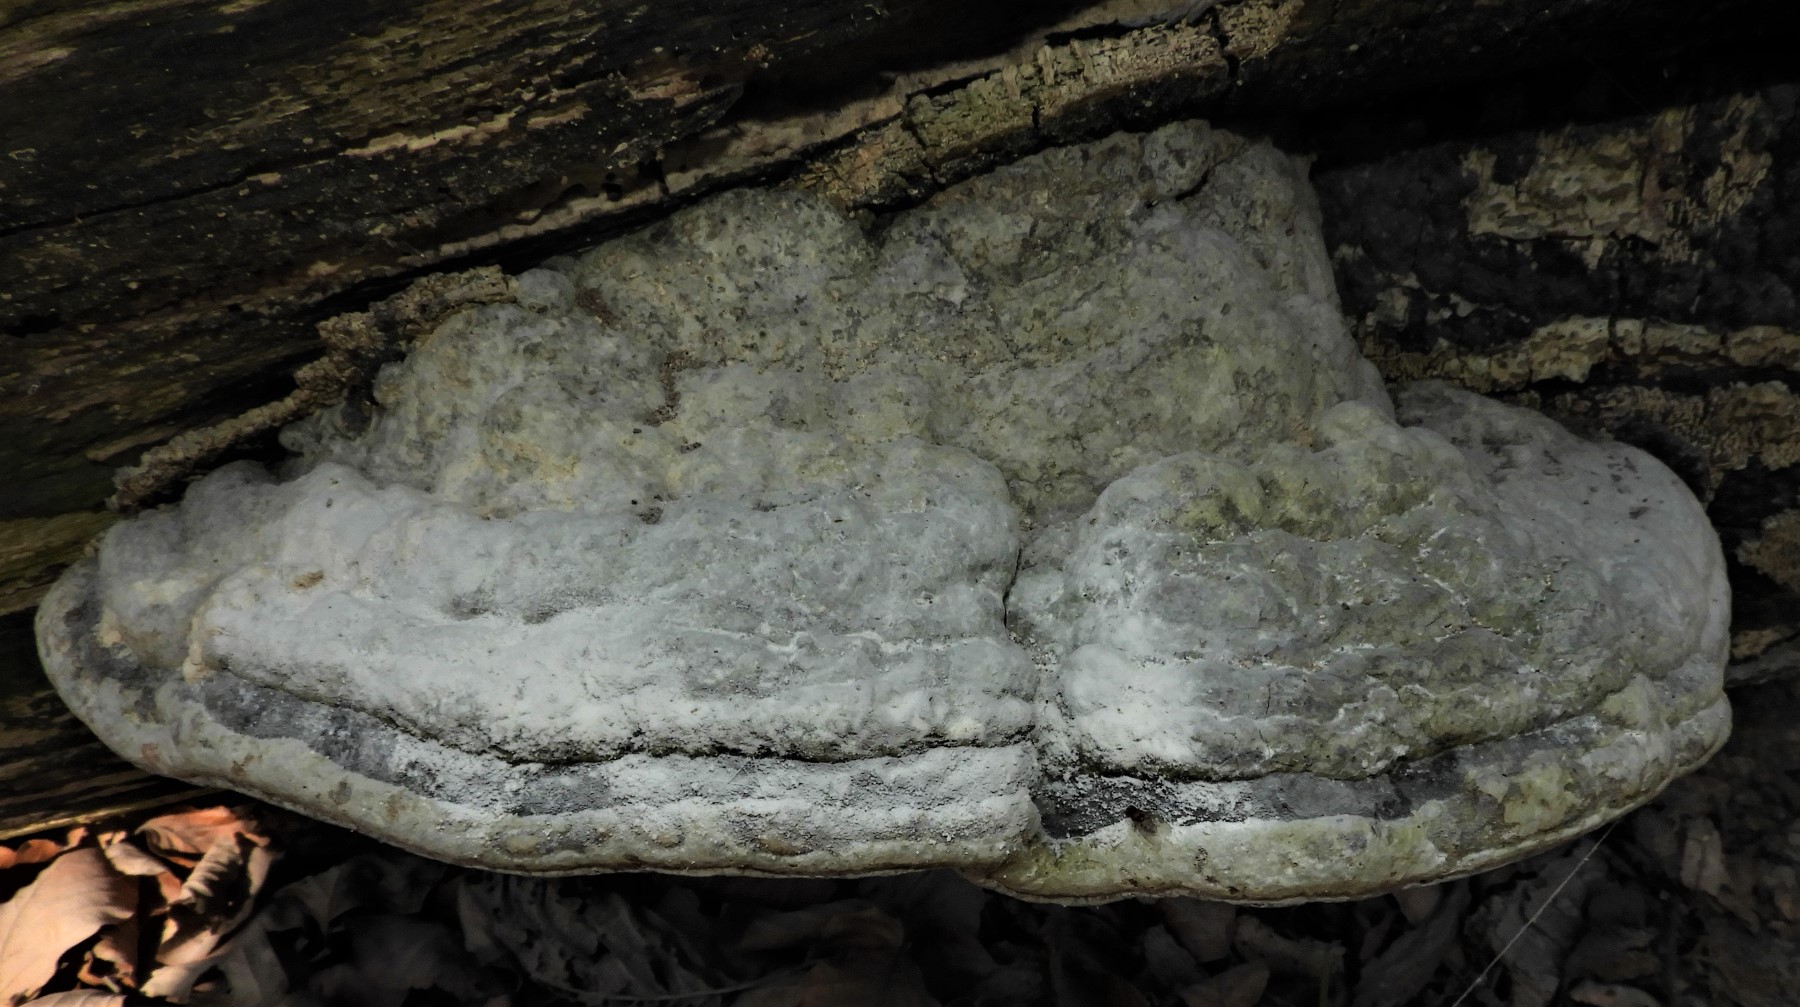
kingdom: Fungi
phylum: Basidiomycota
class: Agaricomycetes
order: Polyporales
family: Polyporaceae
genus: Fomes
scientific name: Fomes fomentarius
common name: tøndersvamp
